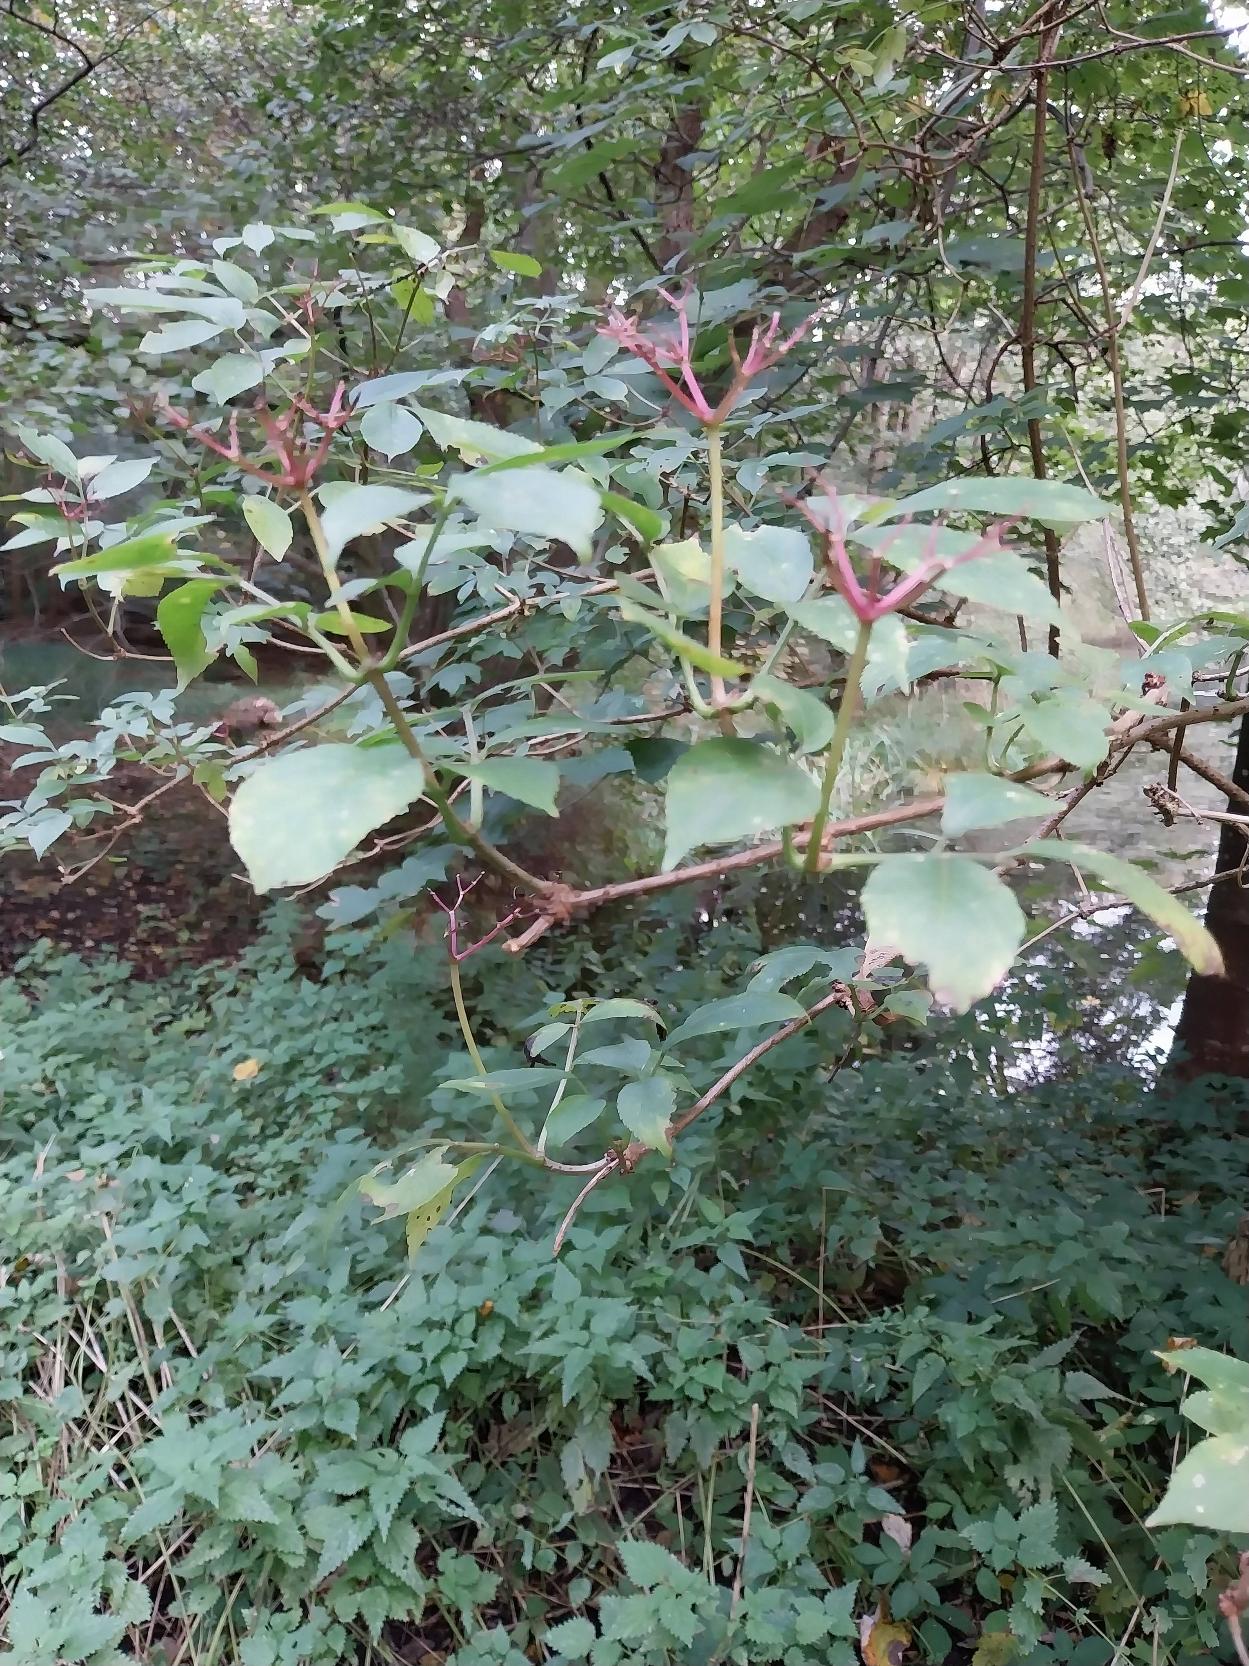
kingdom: Plantae
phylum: Tracheophyta
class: Magnoliopsida
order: Dipsacales
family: Viburnaceae
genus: Sambucus
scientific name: Sambucus nigra
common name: Almindelig hyld
